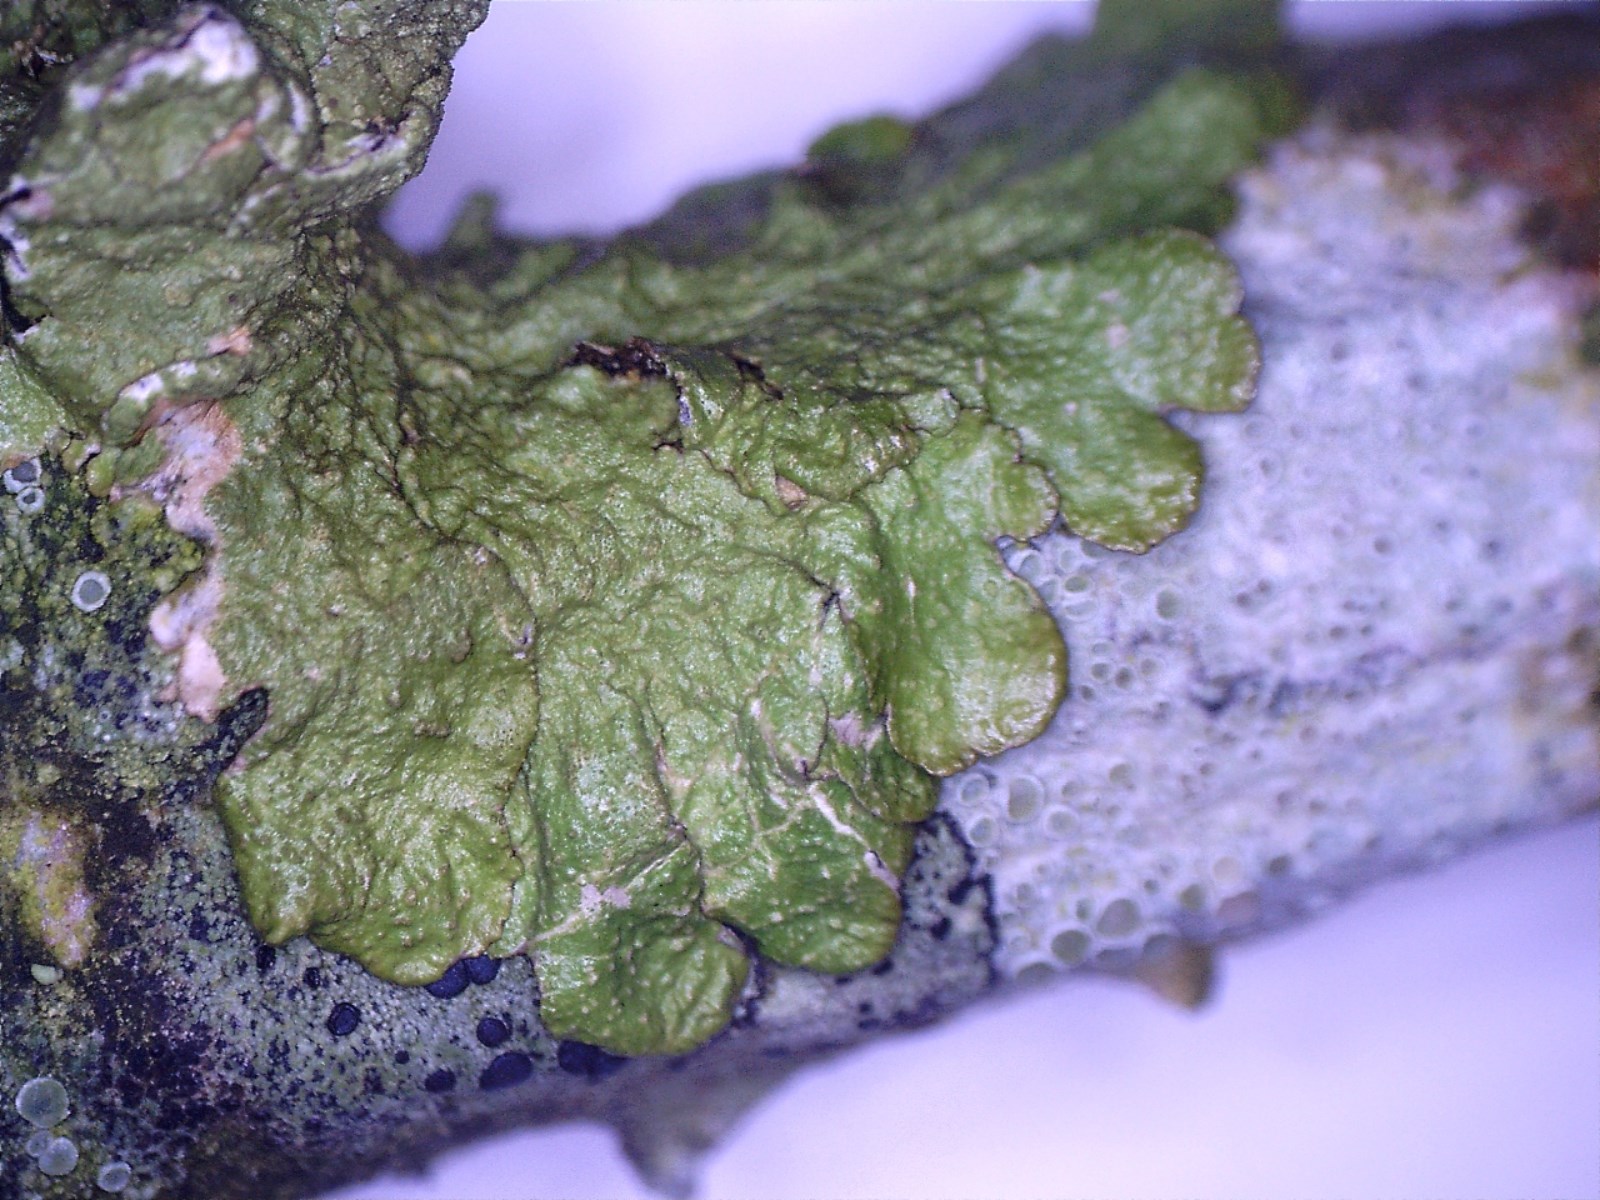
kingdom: Fungi
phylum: Ascomycota
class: Lecanoromycetes
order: Lecanorales
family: Parmeliaceae
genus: Melanelixia
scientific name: Melanelixia glabratula
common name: glinsende skållav
